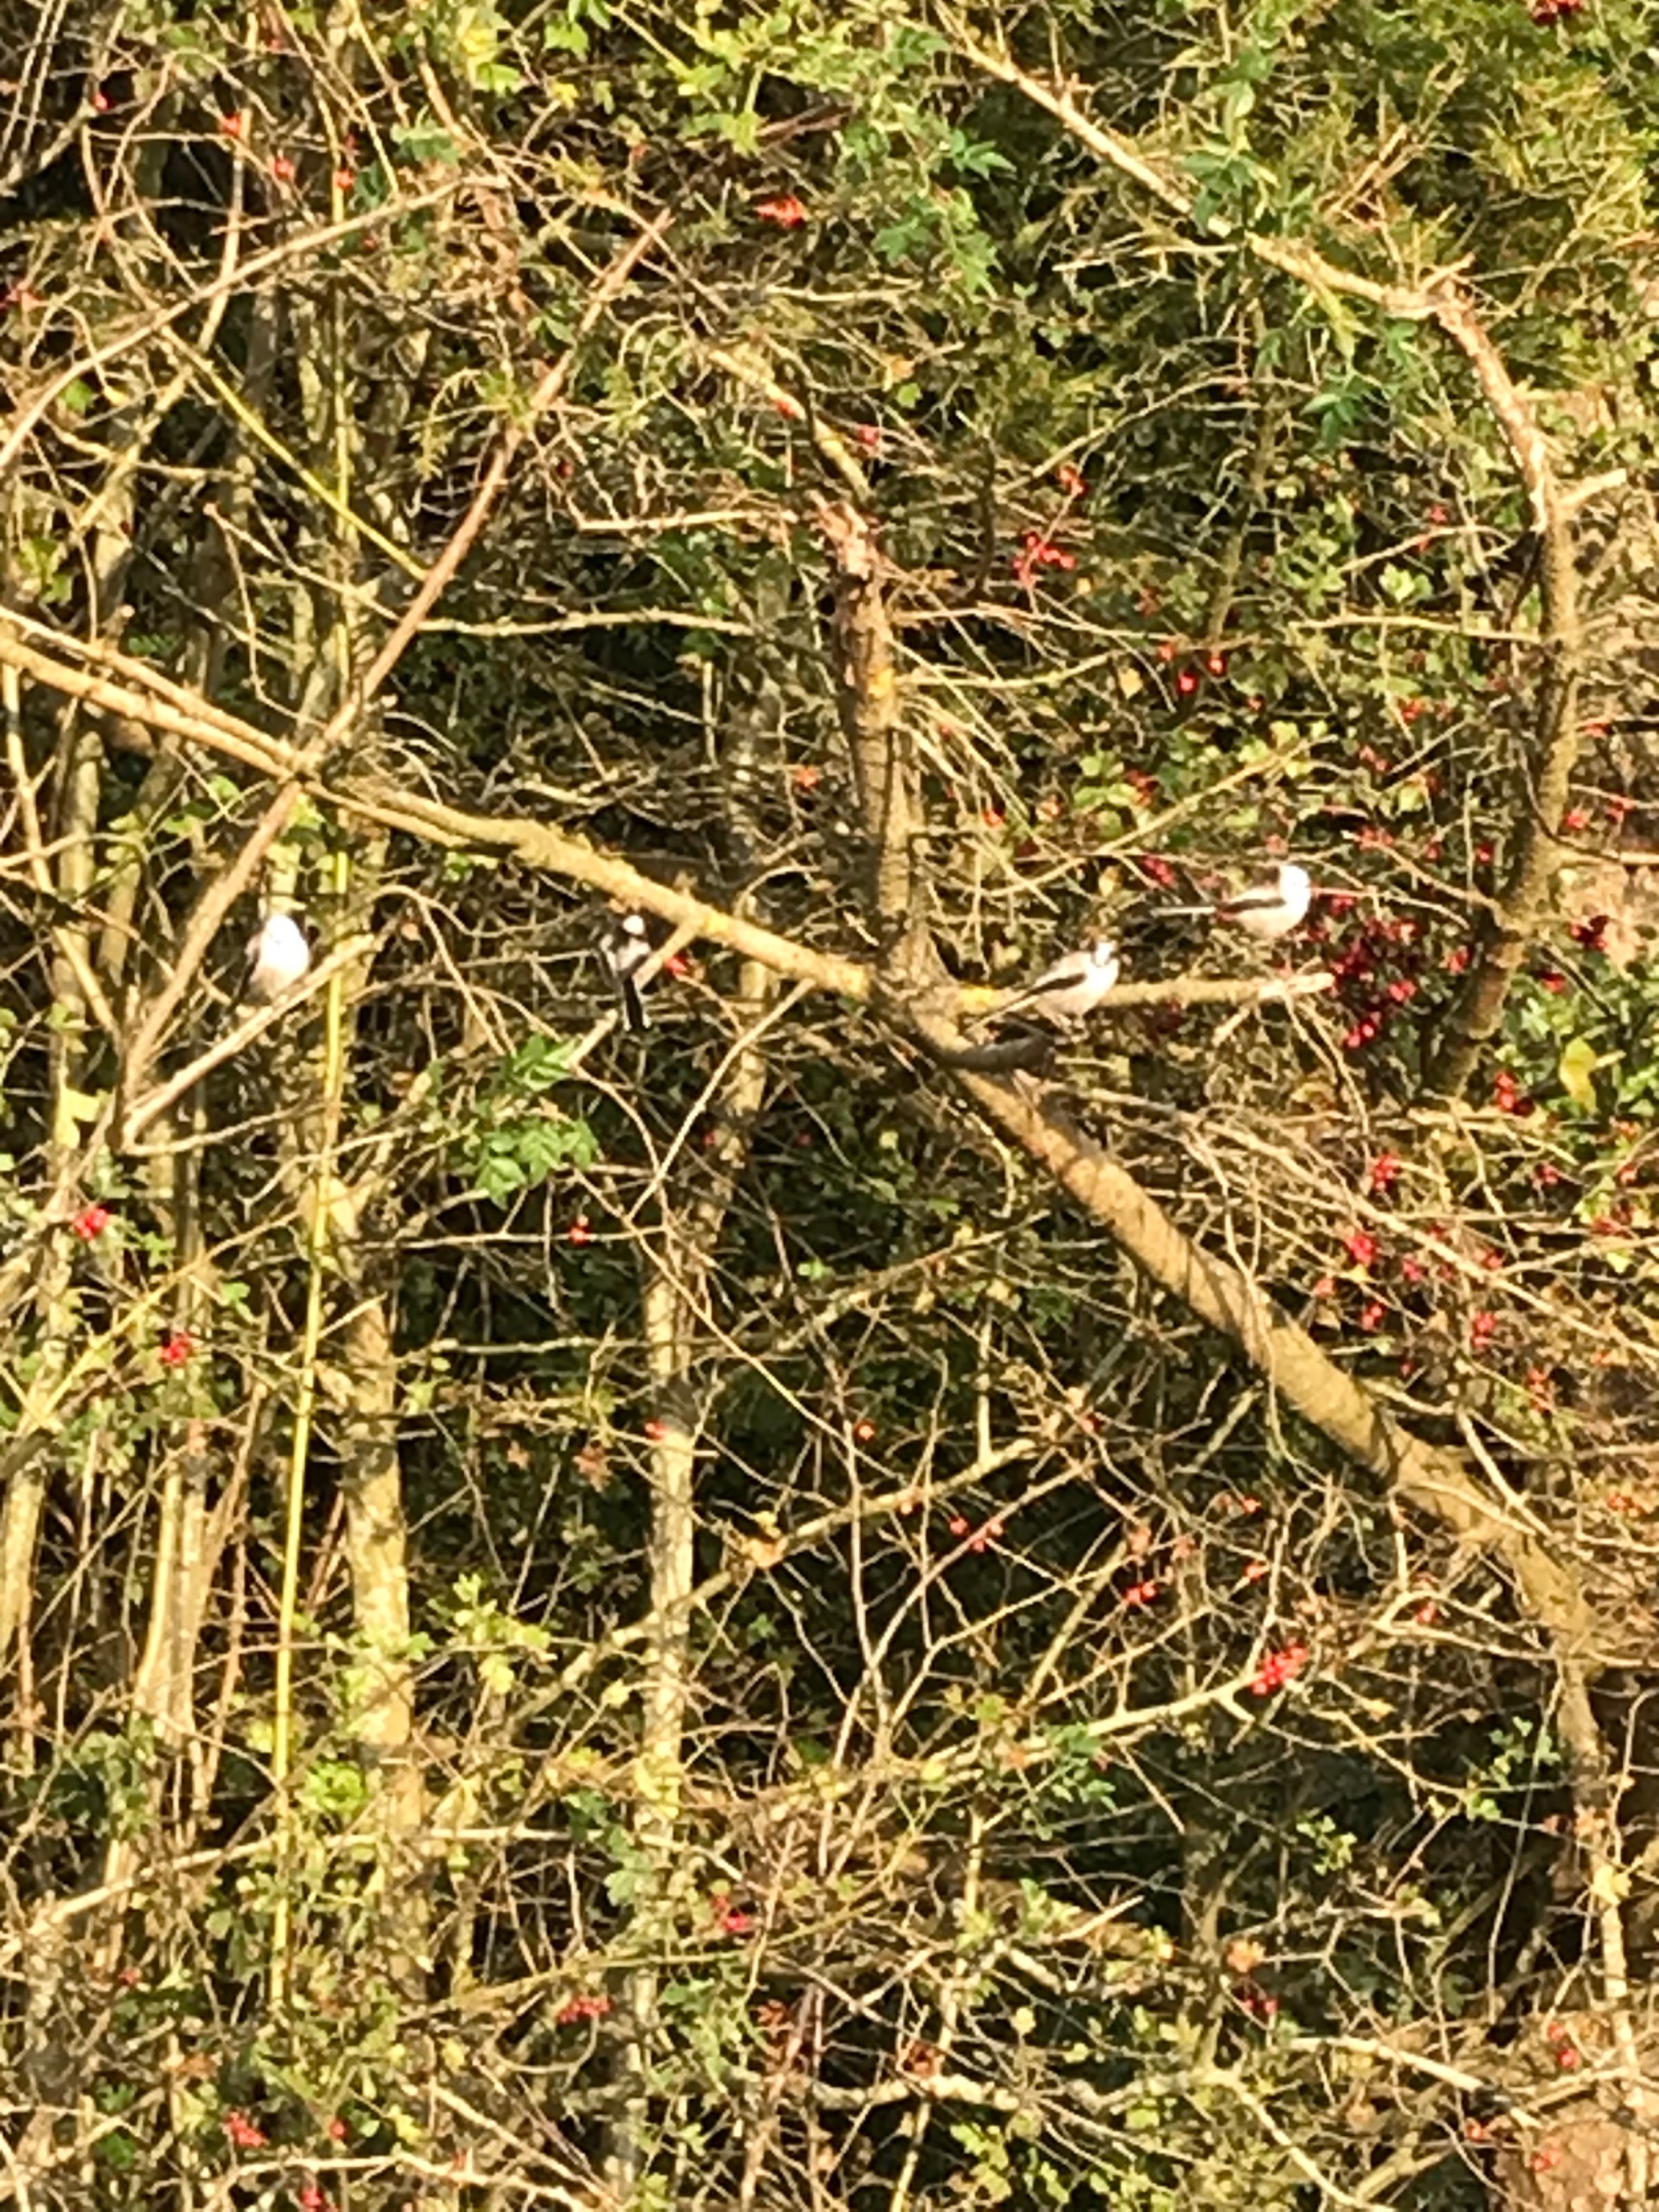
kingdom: Animalia
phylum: Chordata
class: Aves
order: Passeriformes
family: Aegithalidae
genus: Aegithalos
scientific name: Aegithalos caudatus
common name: Halemejse
